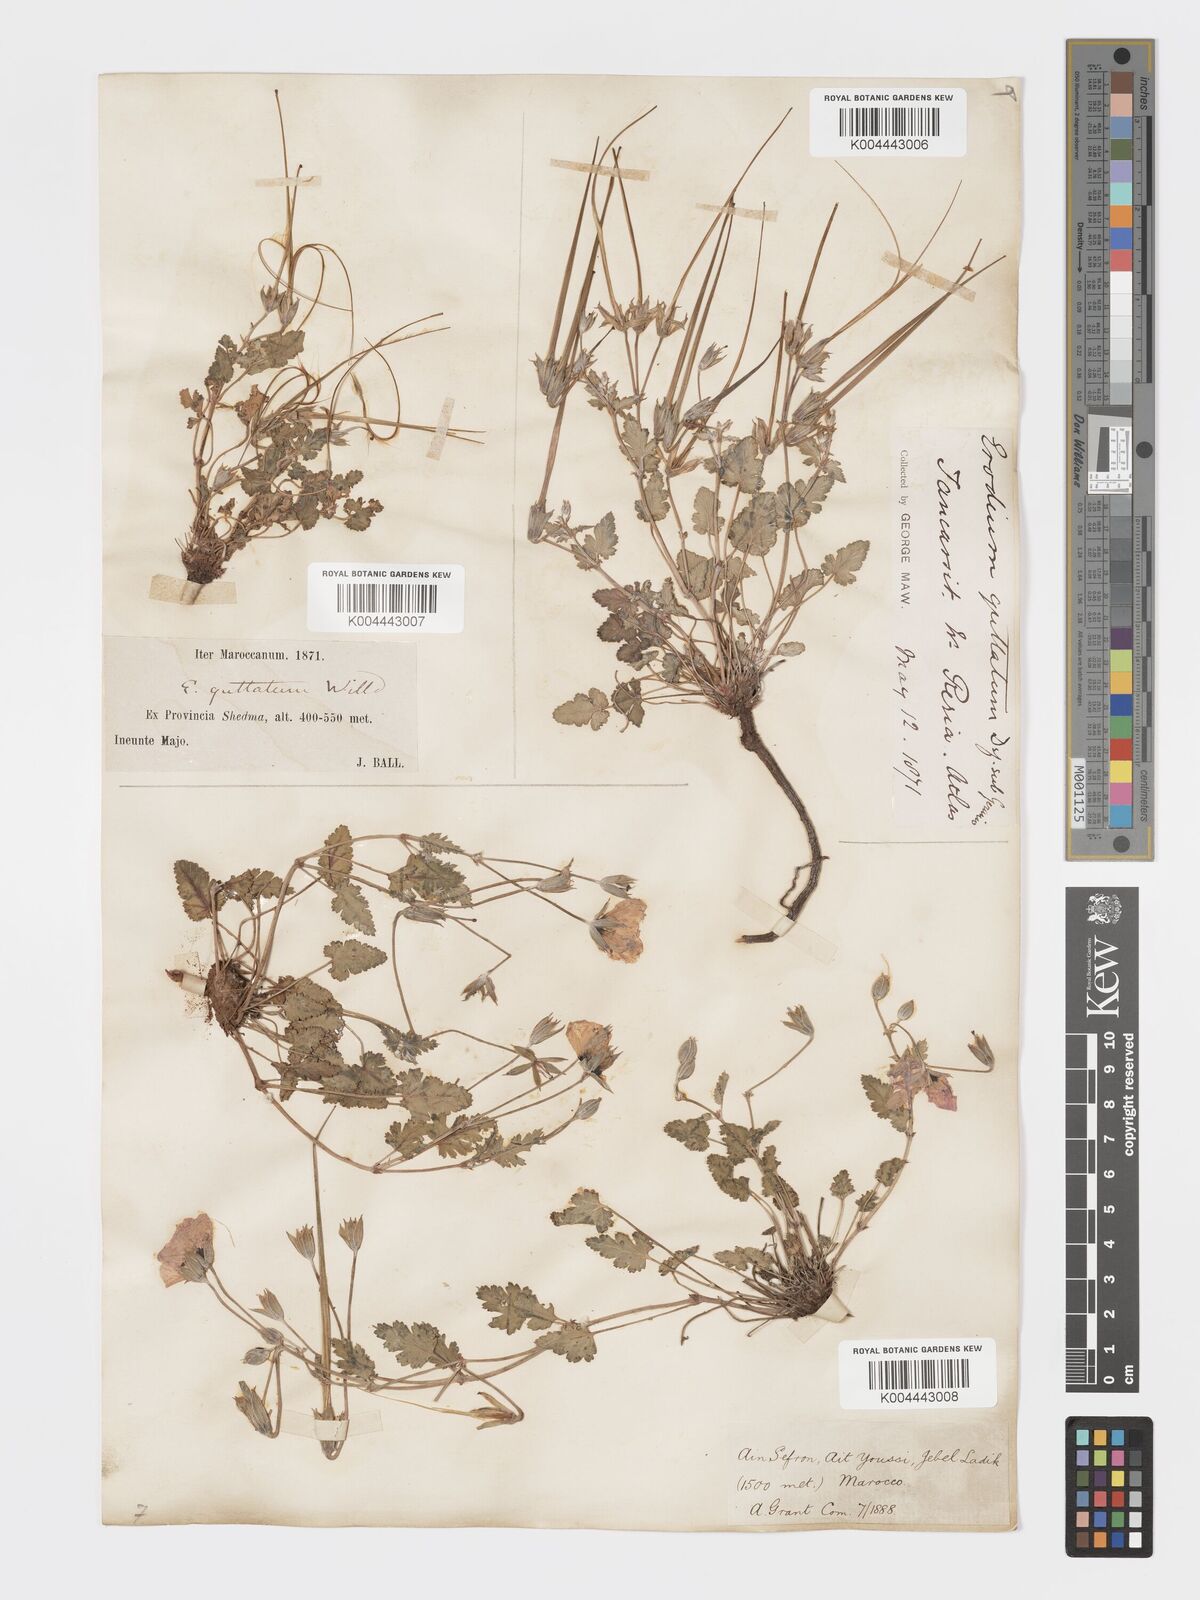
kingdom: Plantae
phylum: Tracheophyta
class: Magnoliopsida
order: Geraniales
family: Geraniaceae
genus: Erodium
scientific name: Erodium guttatum
